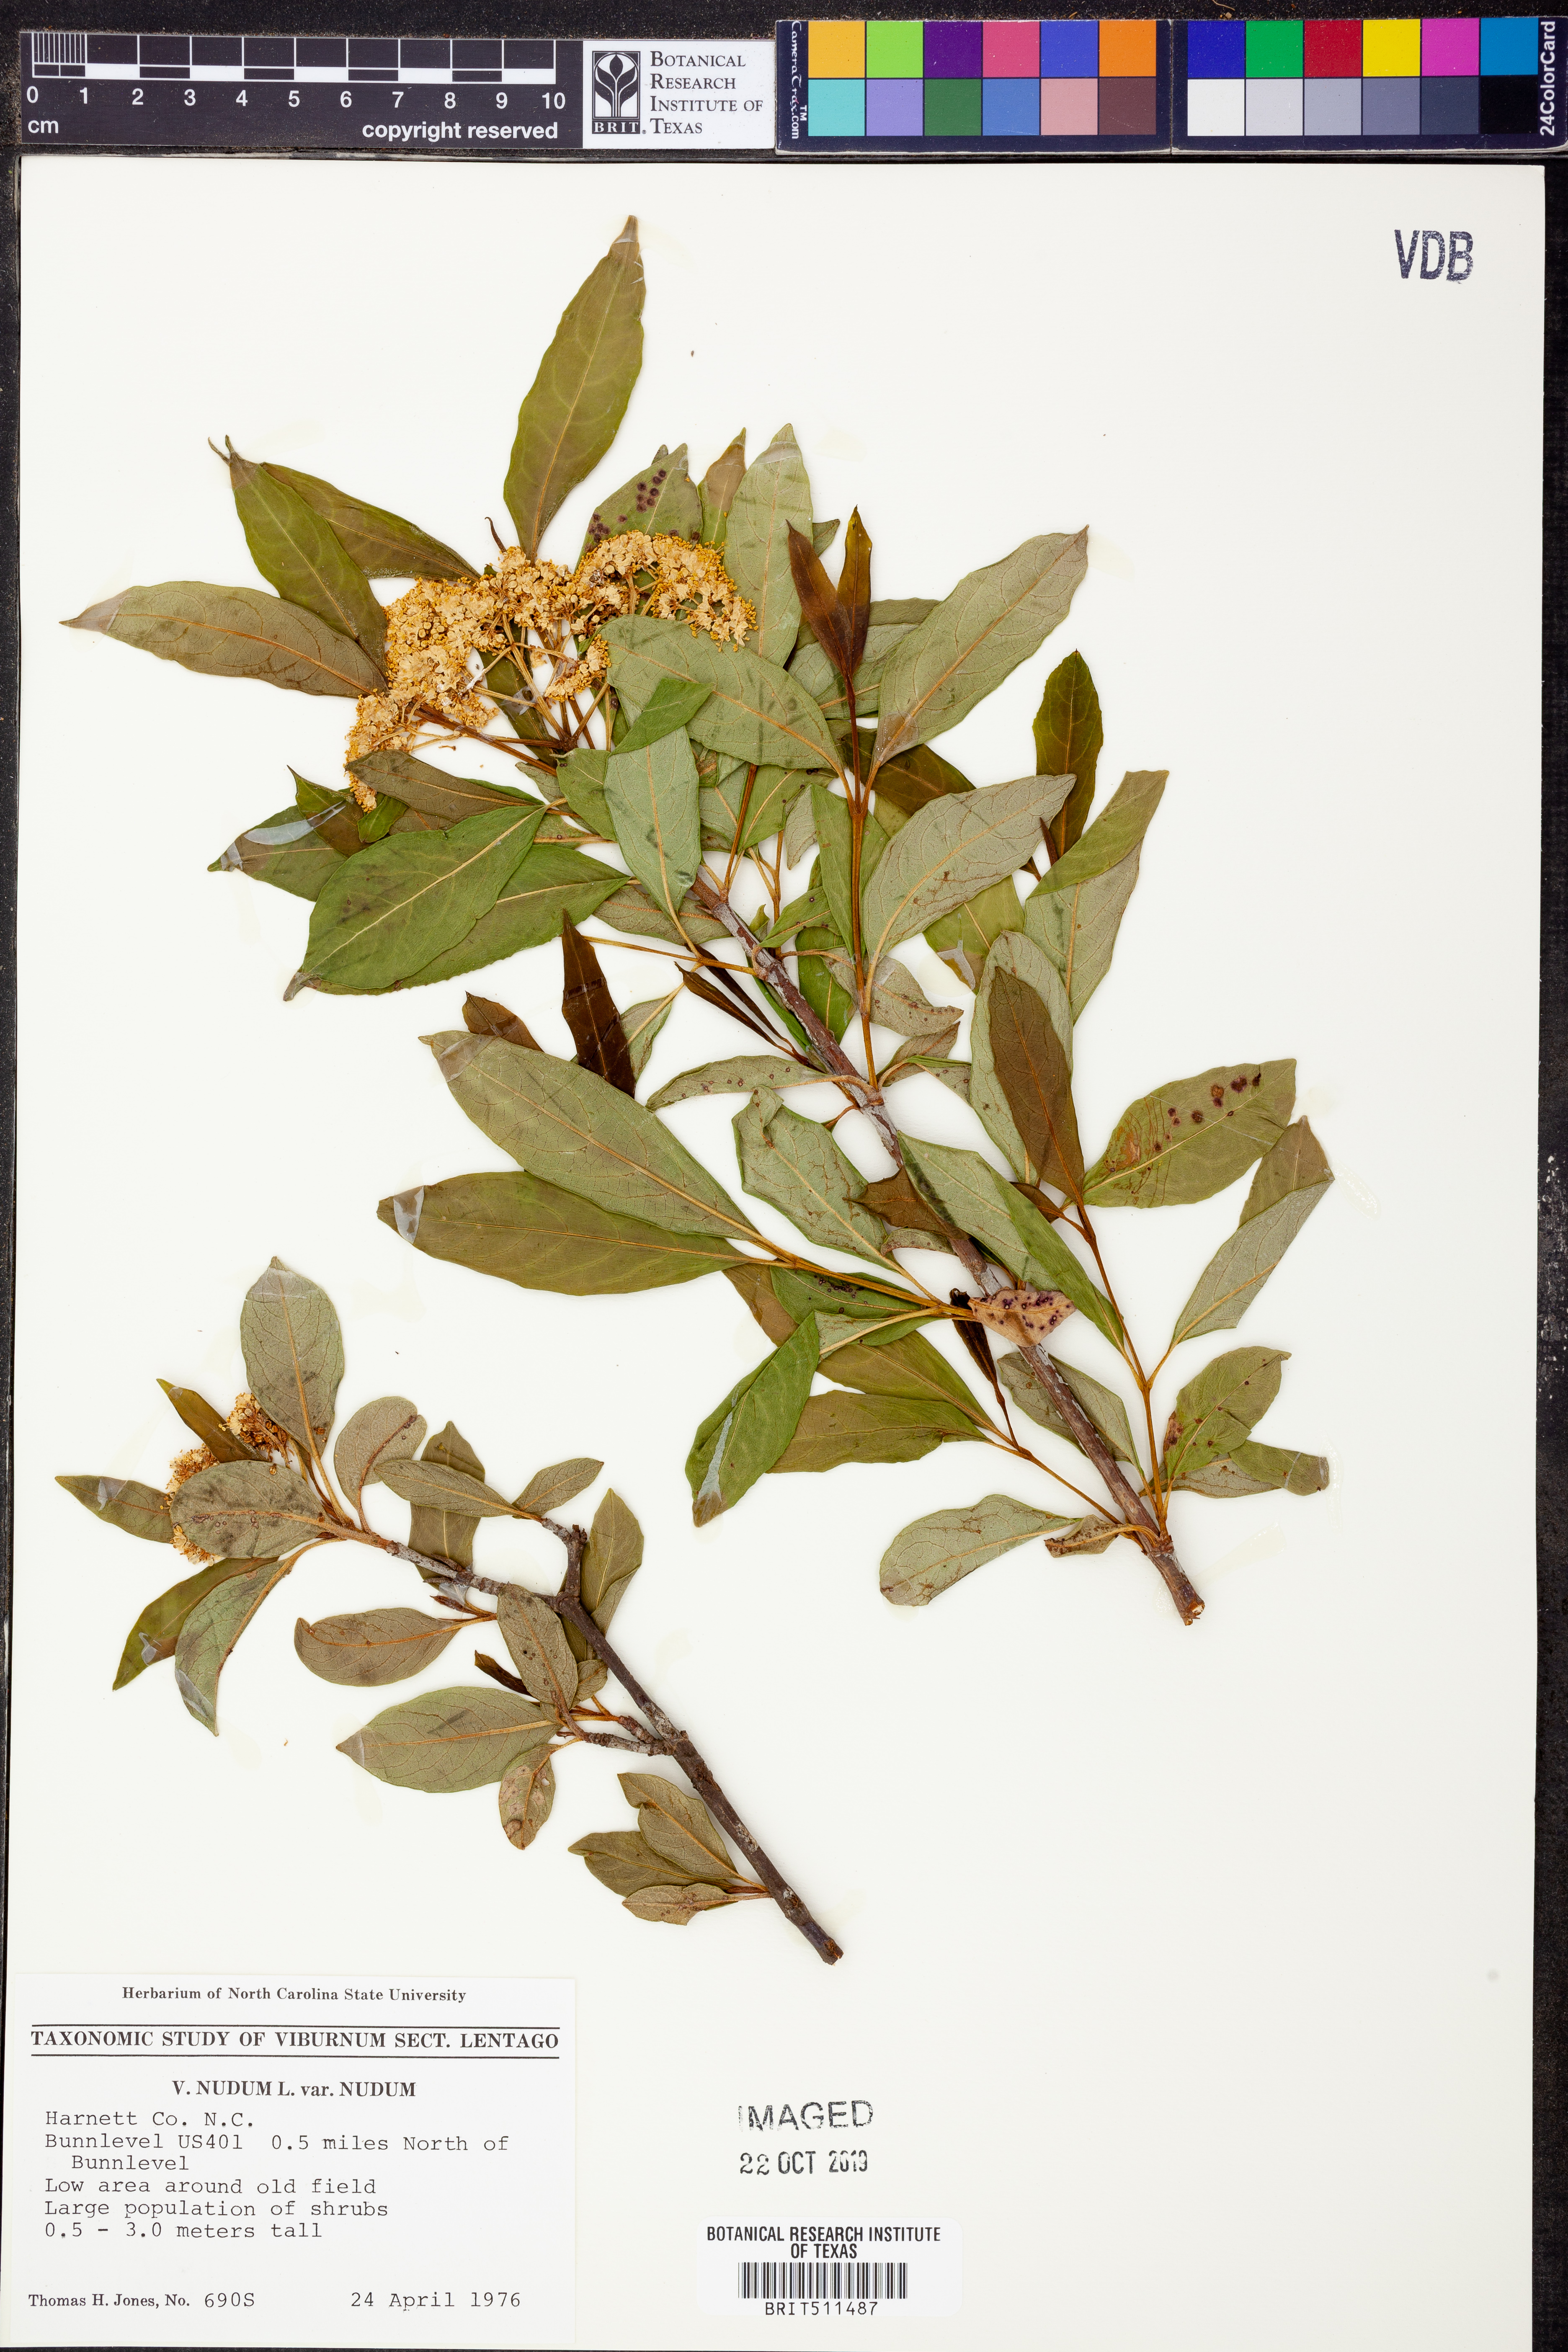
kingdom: Plantae
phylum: Tracheophyta
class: Magnoliopsida
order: Dipsacales
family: Viburnaceae
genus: Viburnum
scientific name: Viburnum nudum
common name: Possum haw
